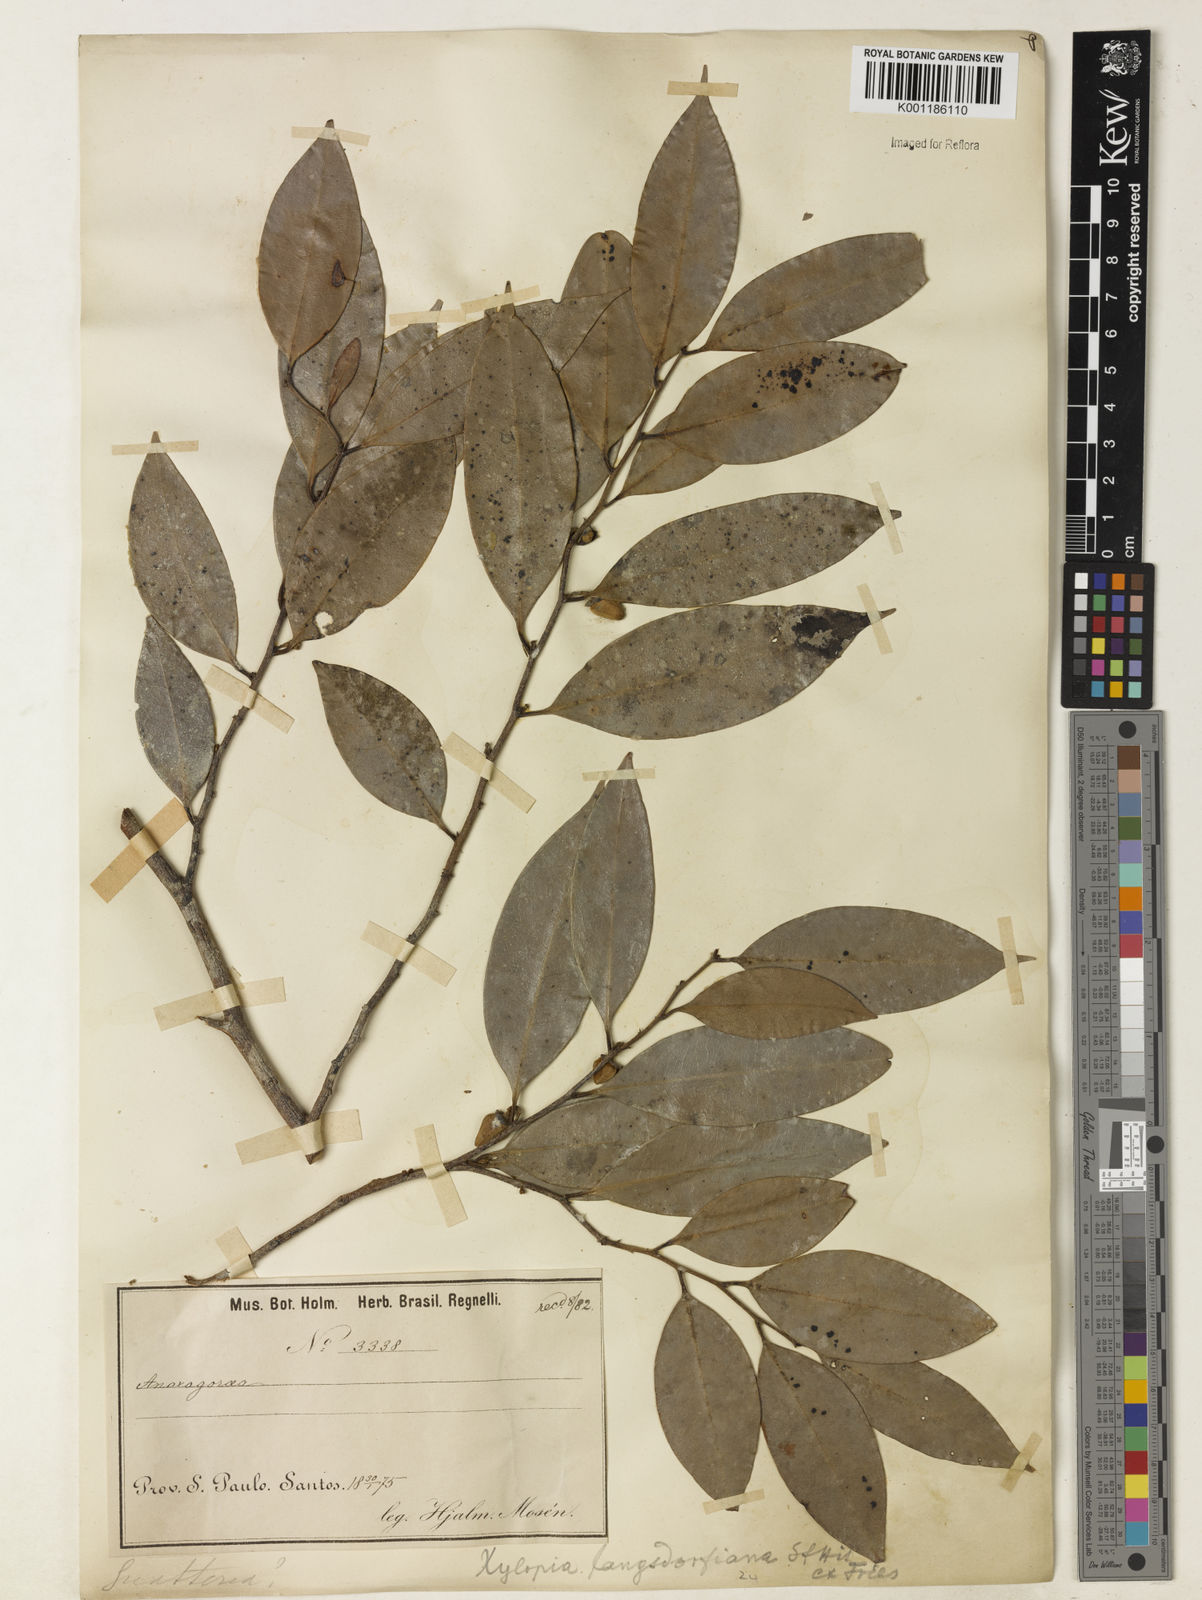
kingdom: Plantae
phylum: Tracheophyta
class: Magnoliopsida
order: Magnoliales
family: Annonaceae
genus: Xylopia
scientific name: Xylopia langsdorfiana
